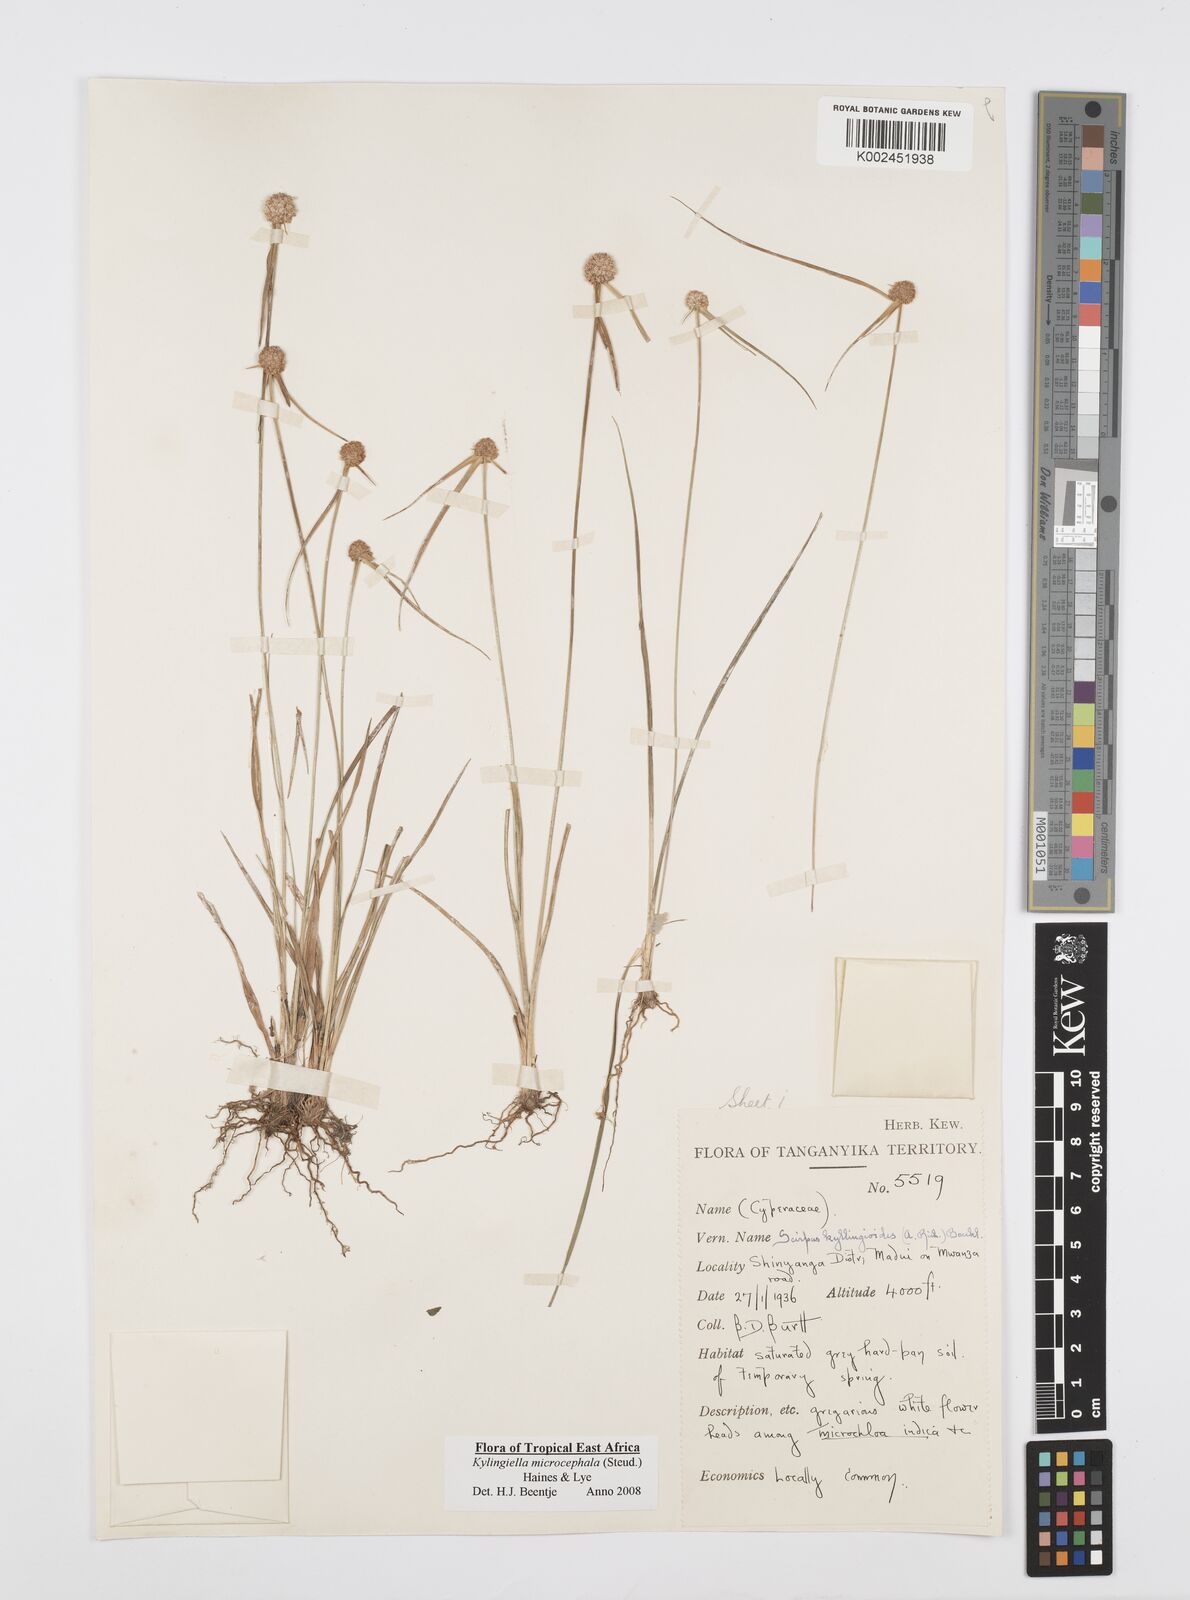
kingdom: Plantae
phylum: Tracheophyta
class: Liliopsida
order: Poales
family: Cyperaceae
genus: Cyperus
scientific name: Cyperus microcephalus
